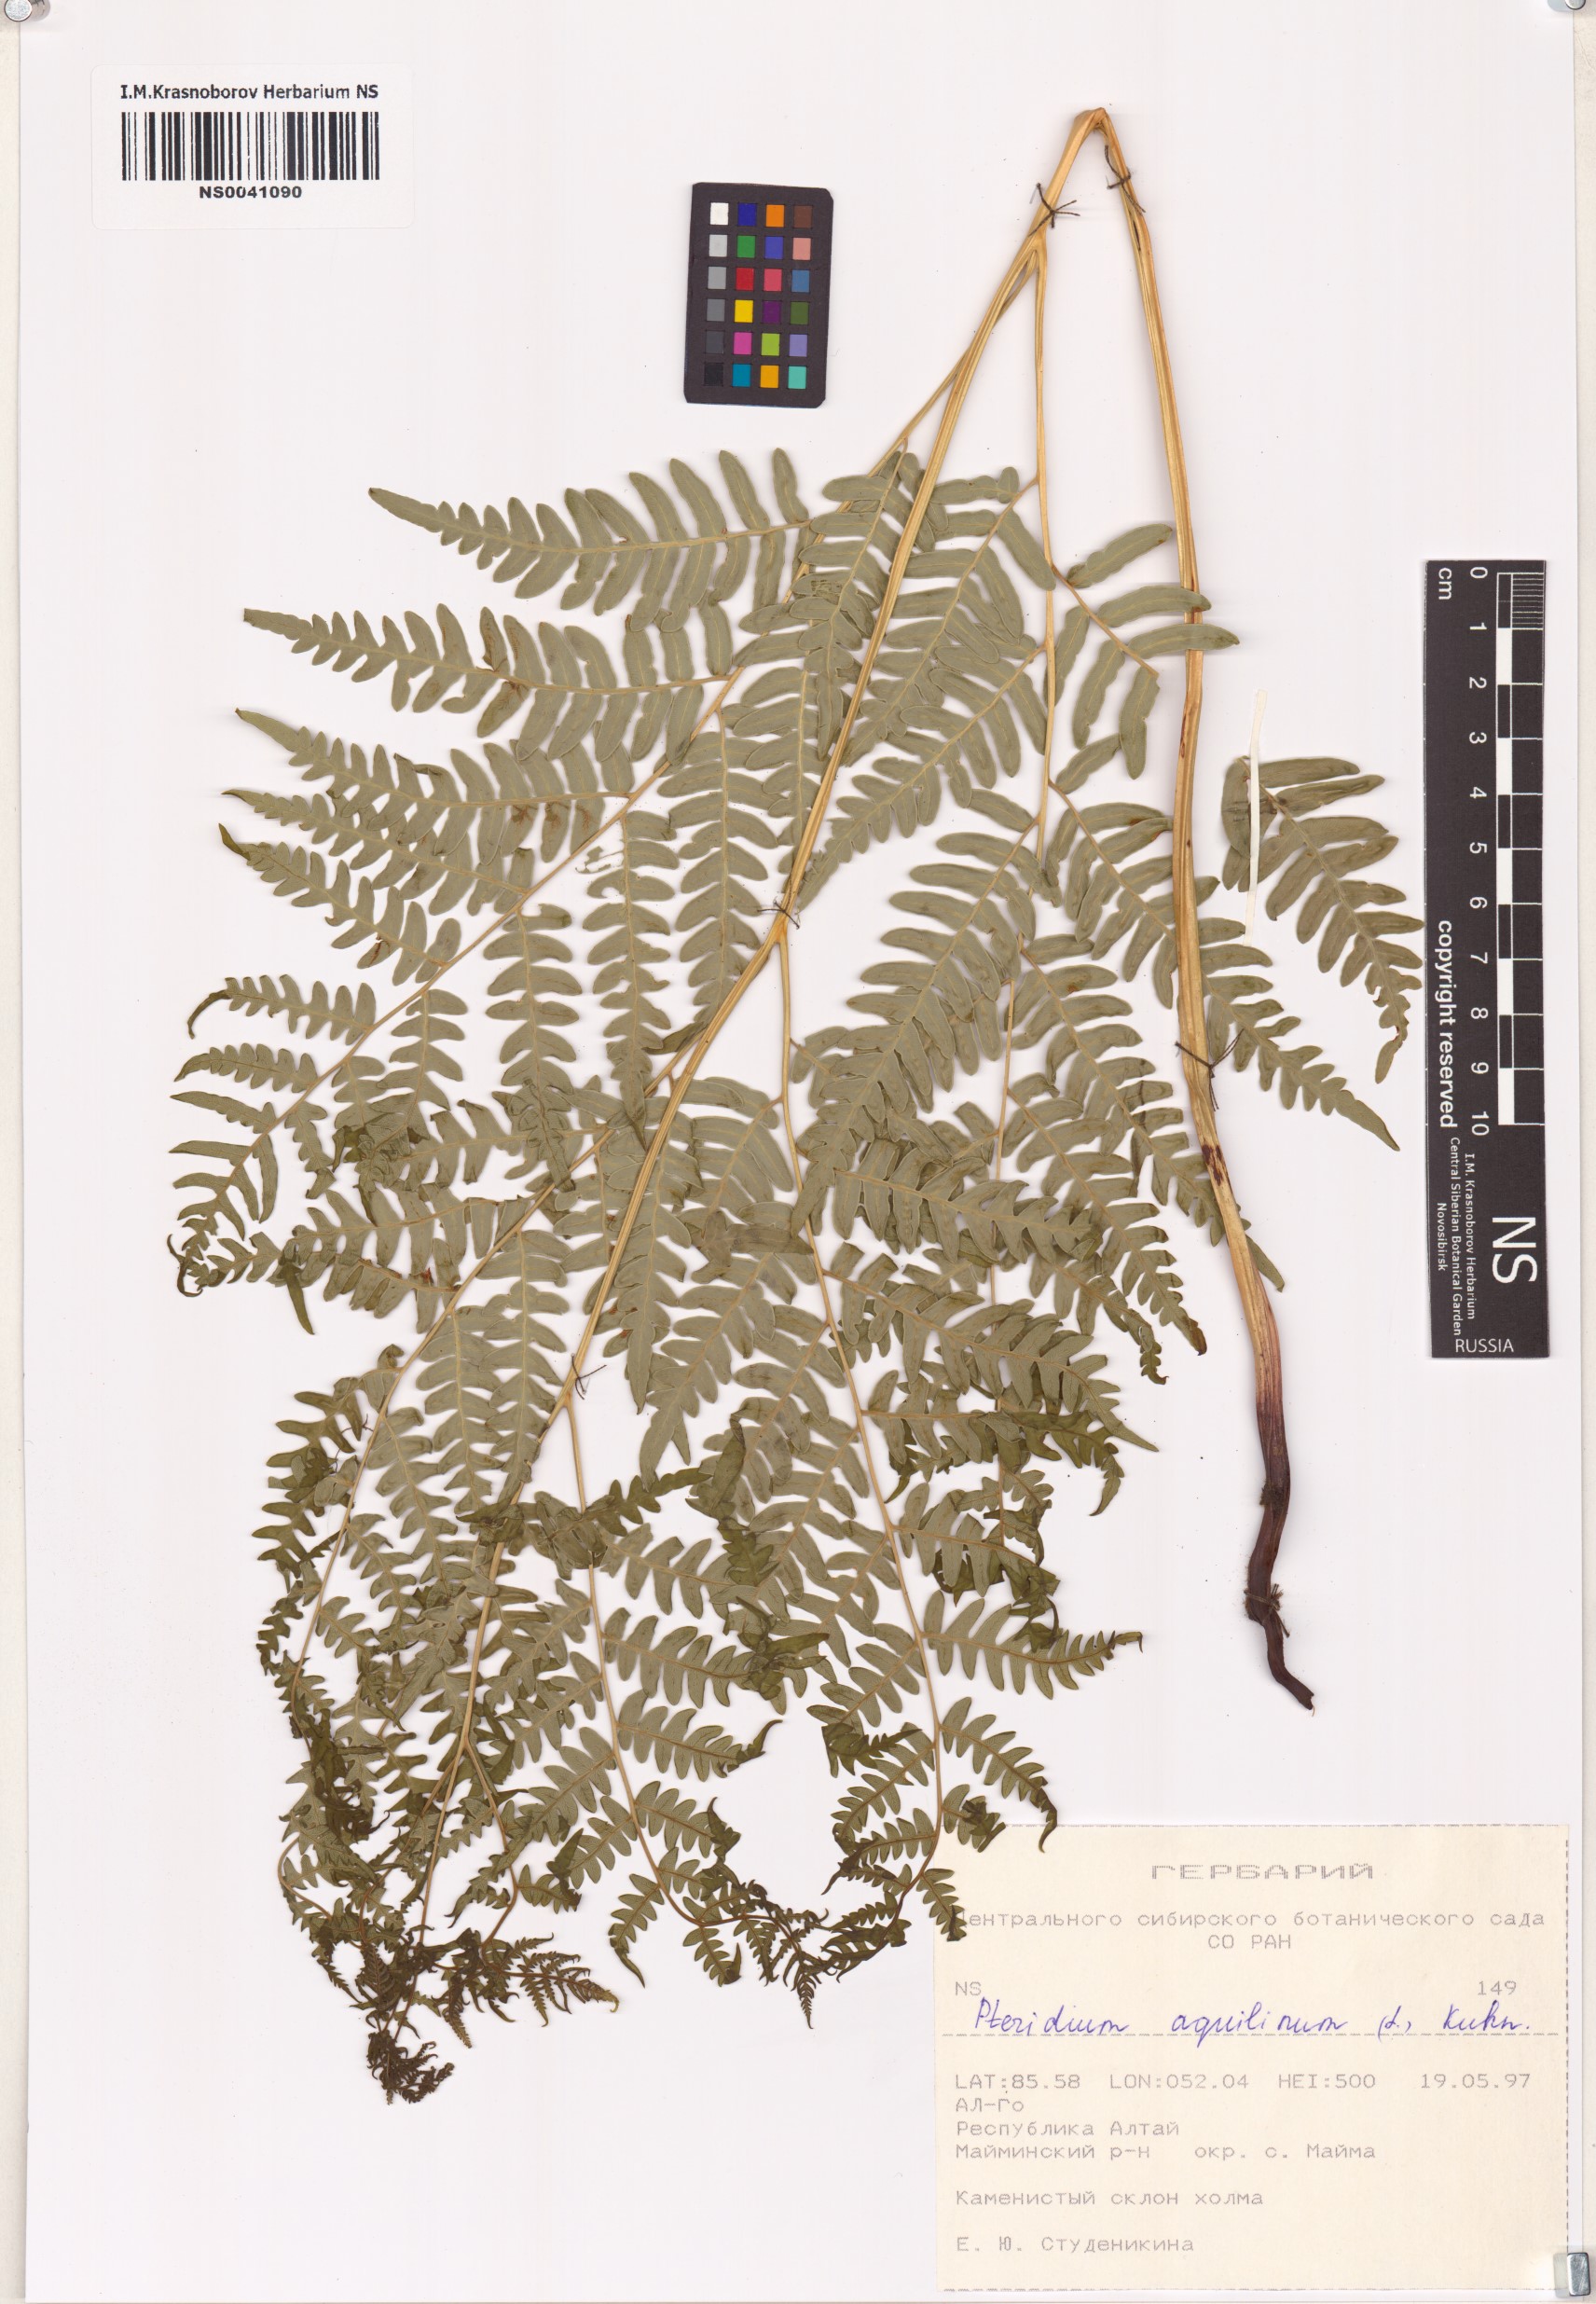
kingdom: Plantae
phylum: Tracheophyta
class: Polypodiopsida
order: Polypodiales
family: Dennstaedtiaceae
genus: Pteridium
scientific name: Pteridium aquilinum
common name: Bracken
